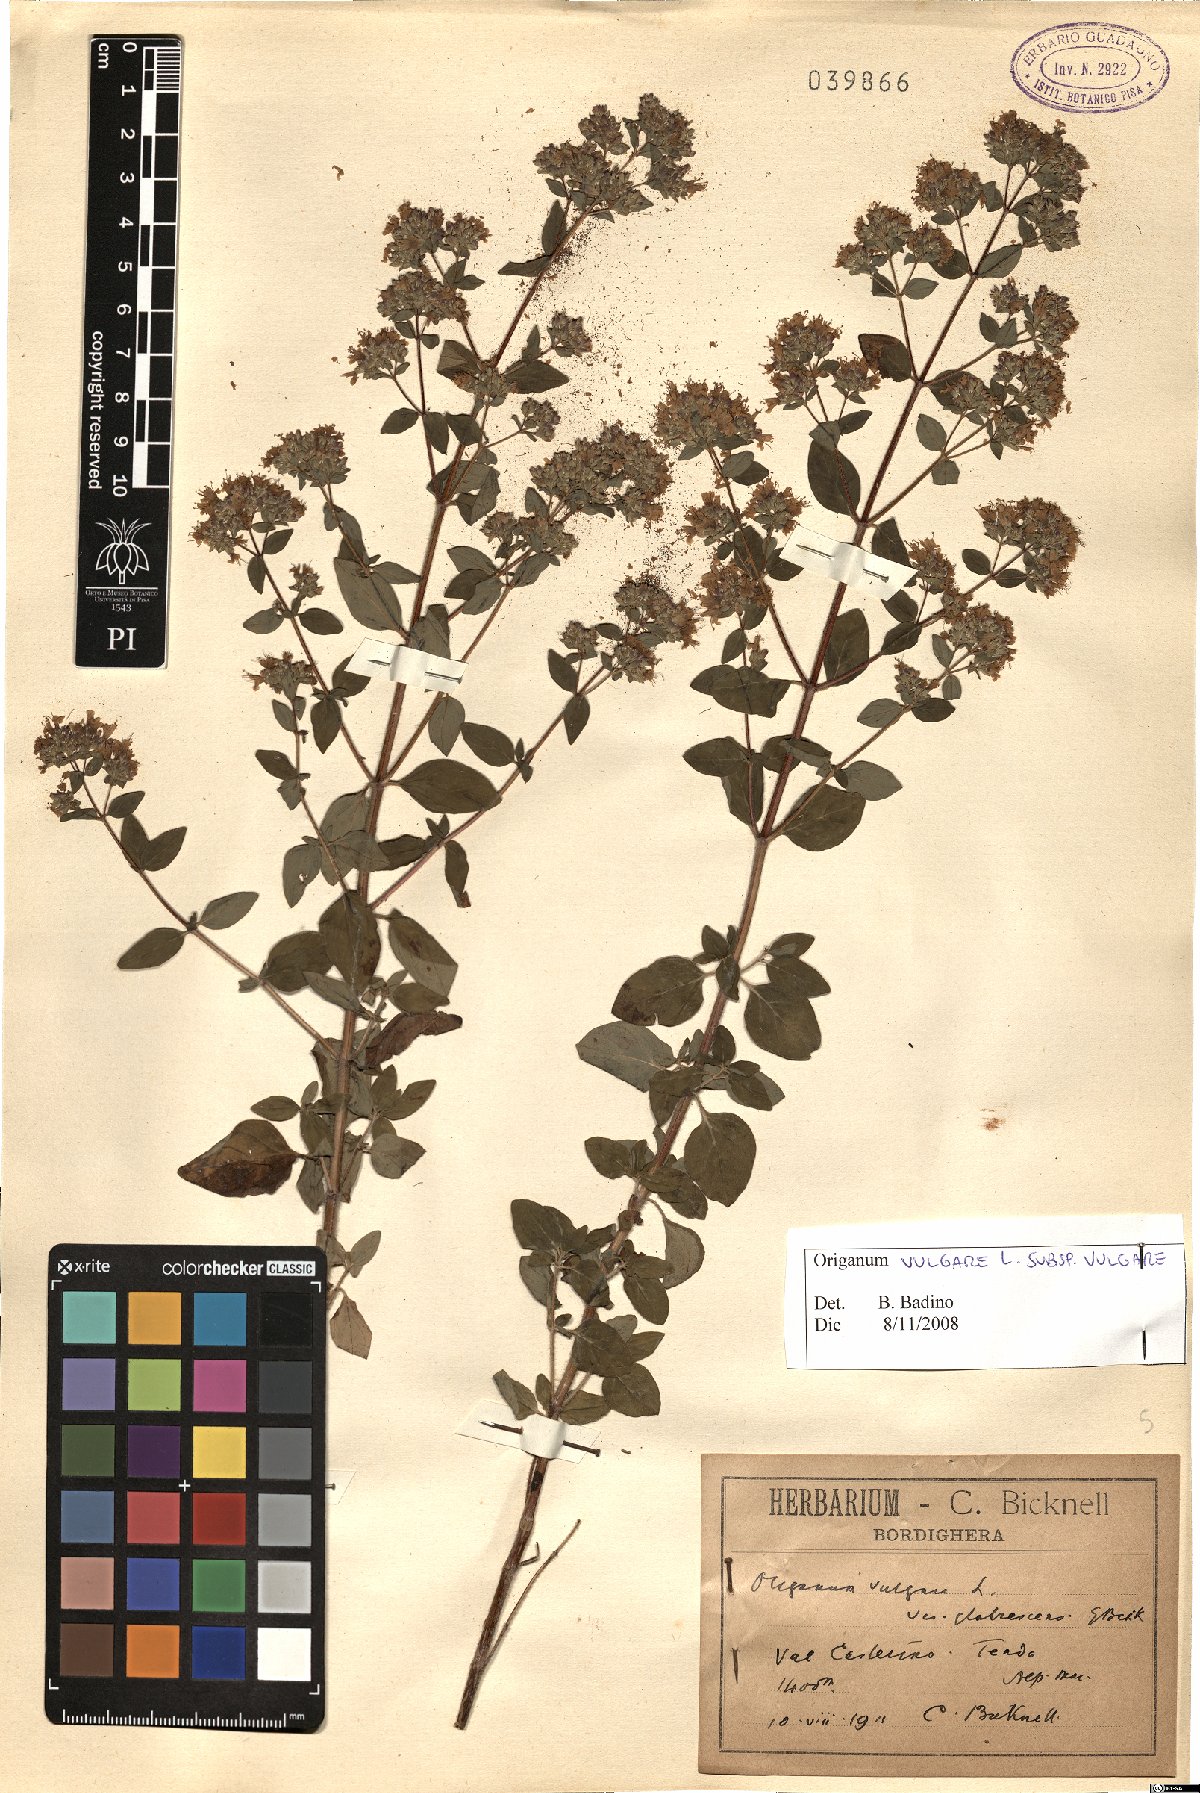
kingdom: Plantae
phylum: Tracheophyta
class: Magnoliopsida
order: Lamiales
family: Lamiaceae
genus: Origanum
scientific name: Origanum vulgare
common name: Wild marjoram
